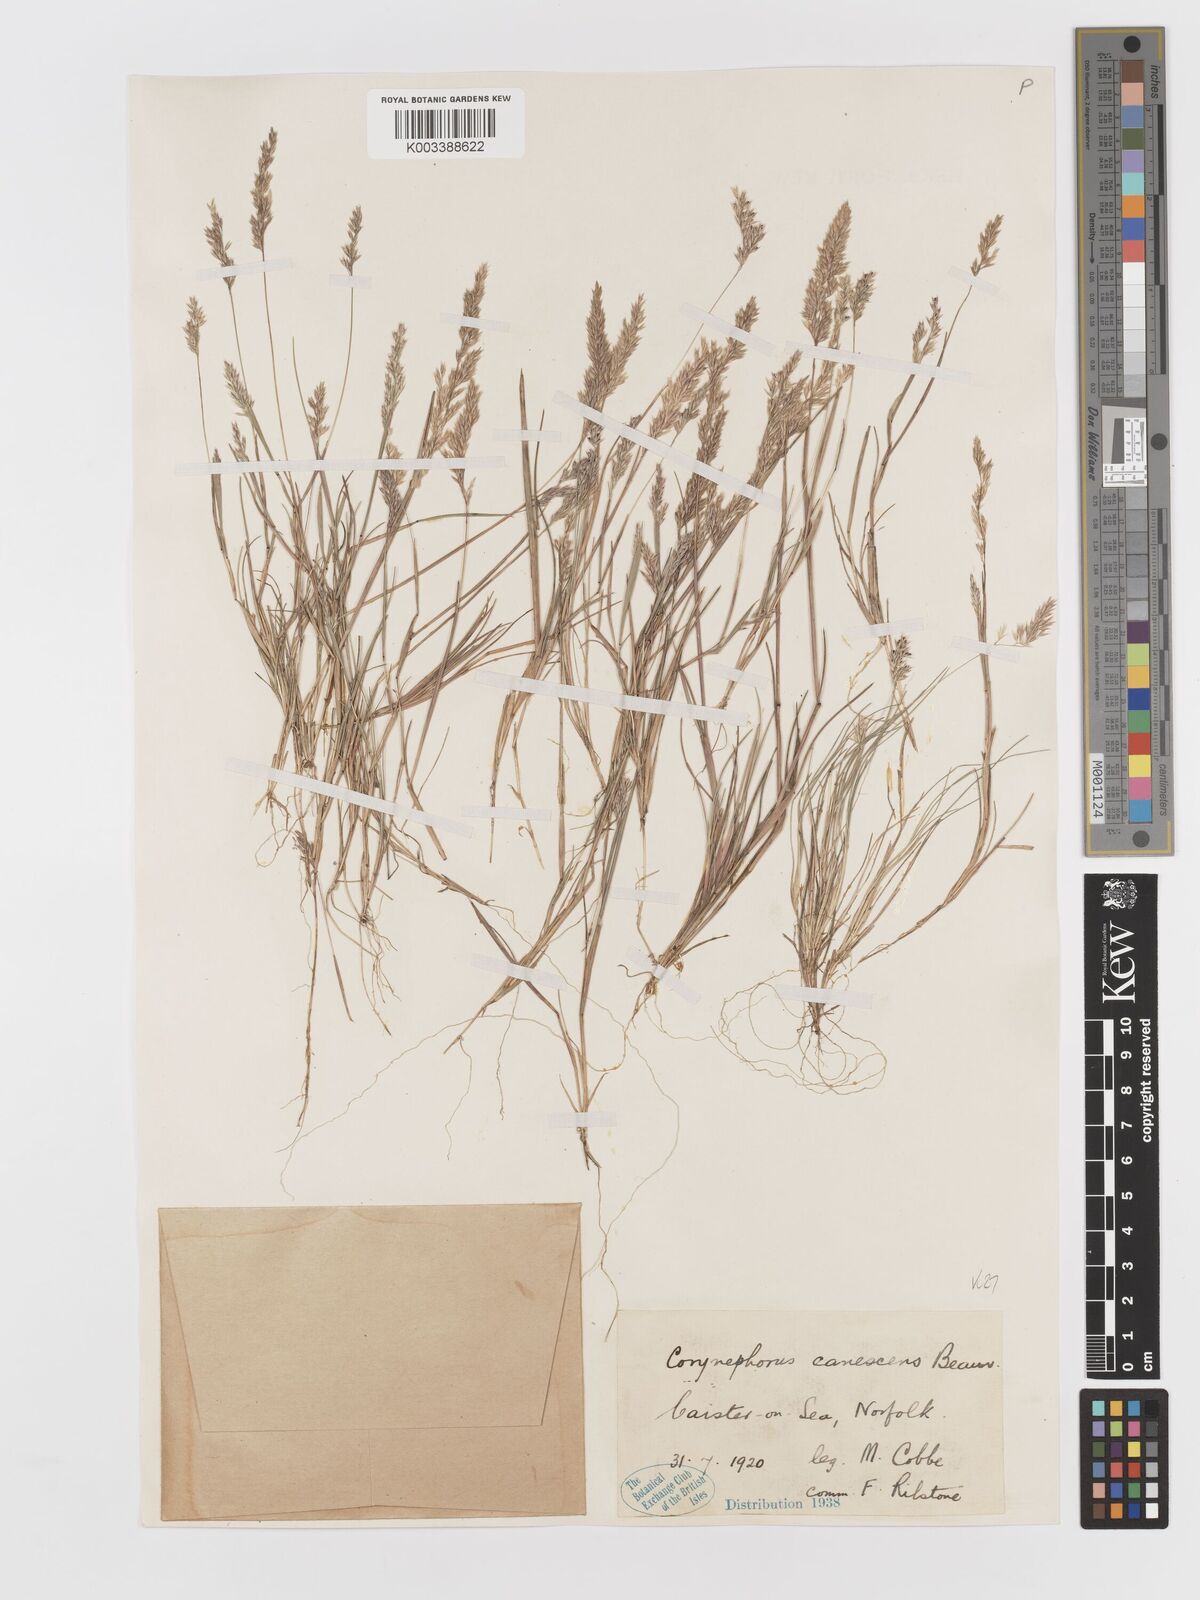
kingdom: Plantae
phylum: Tracheophyta
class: Liliopsida
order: Poales
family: Poaceae
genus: Corynephorus
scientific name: Corynephorus canescens
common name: Grey hair-grass
